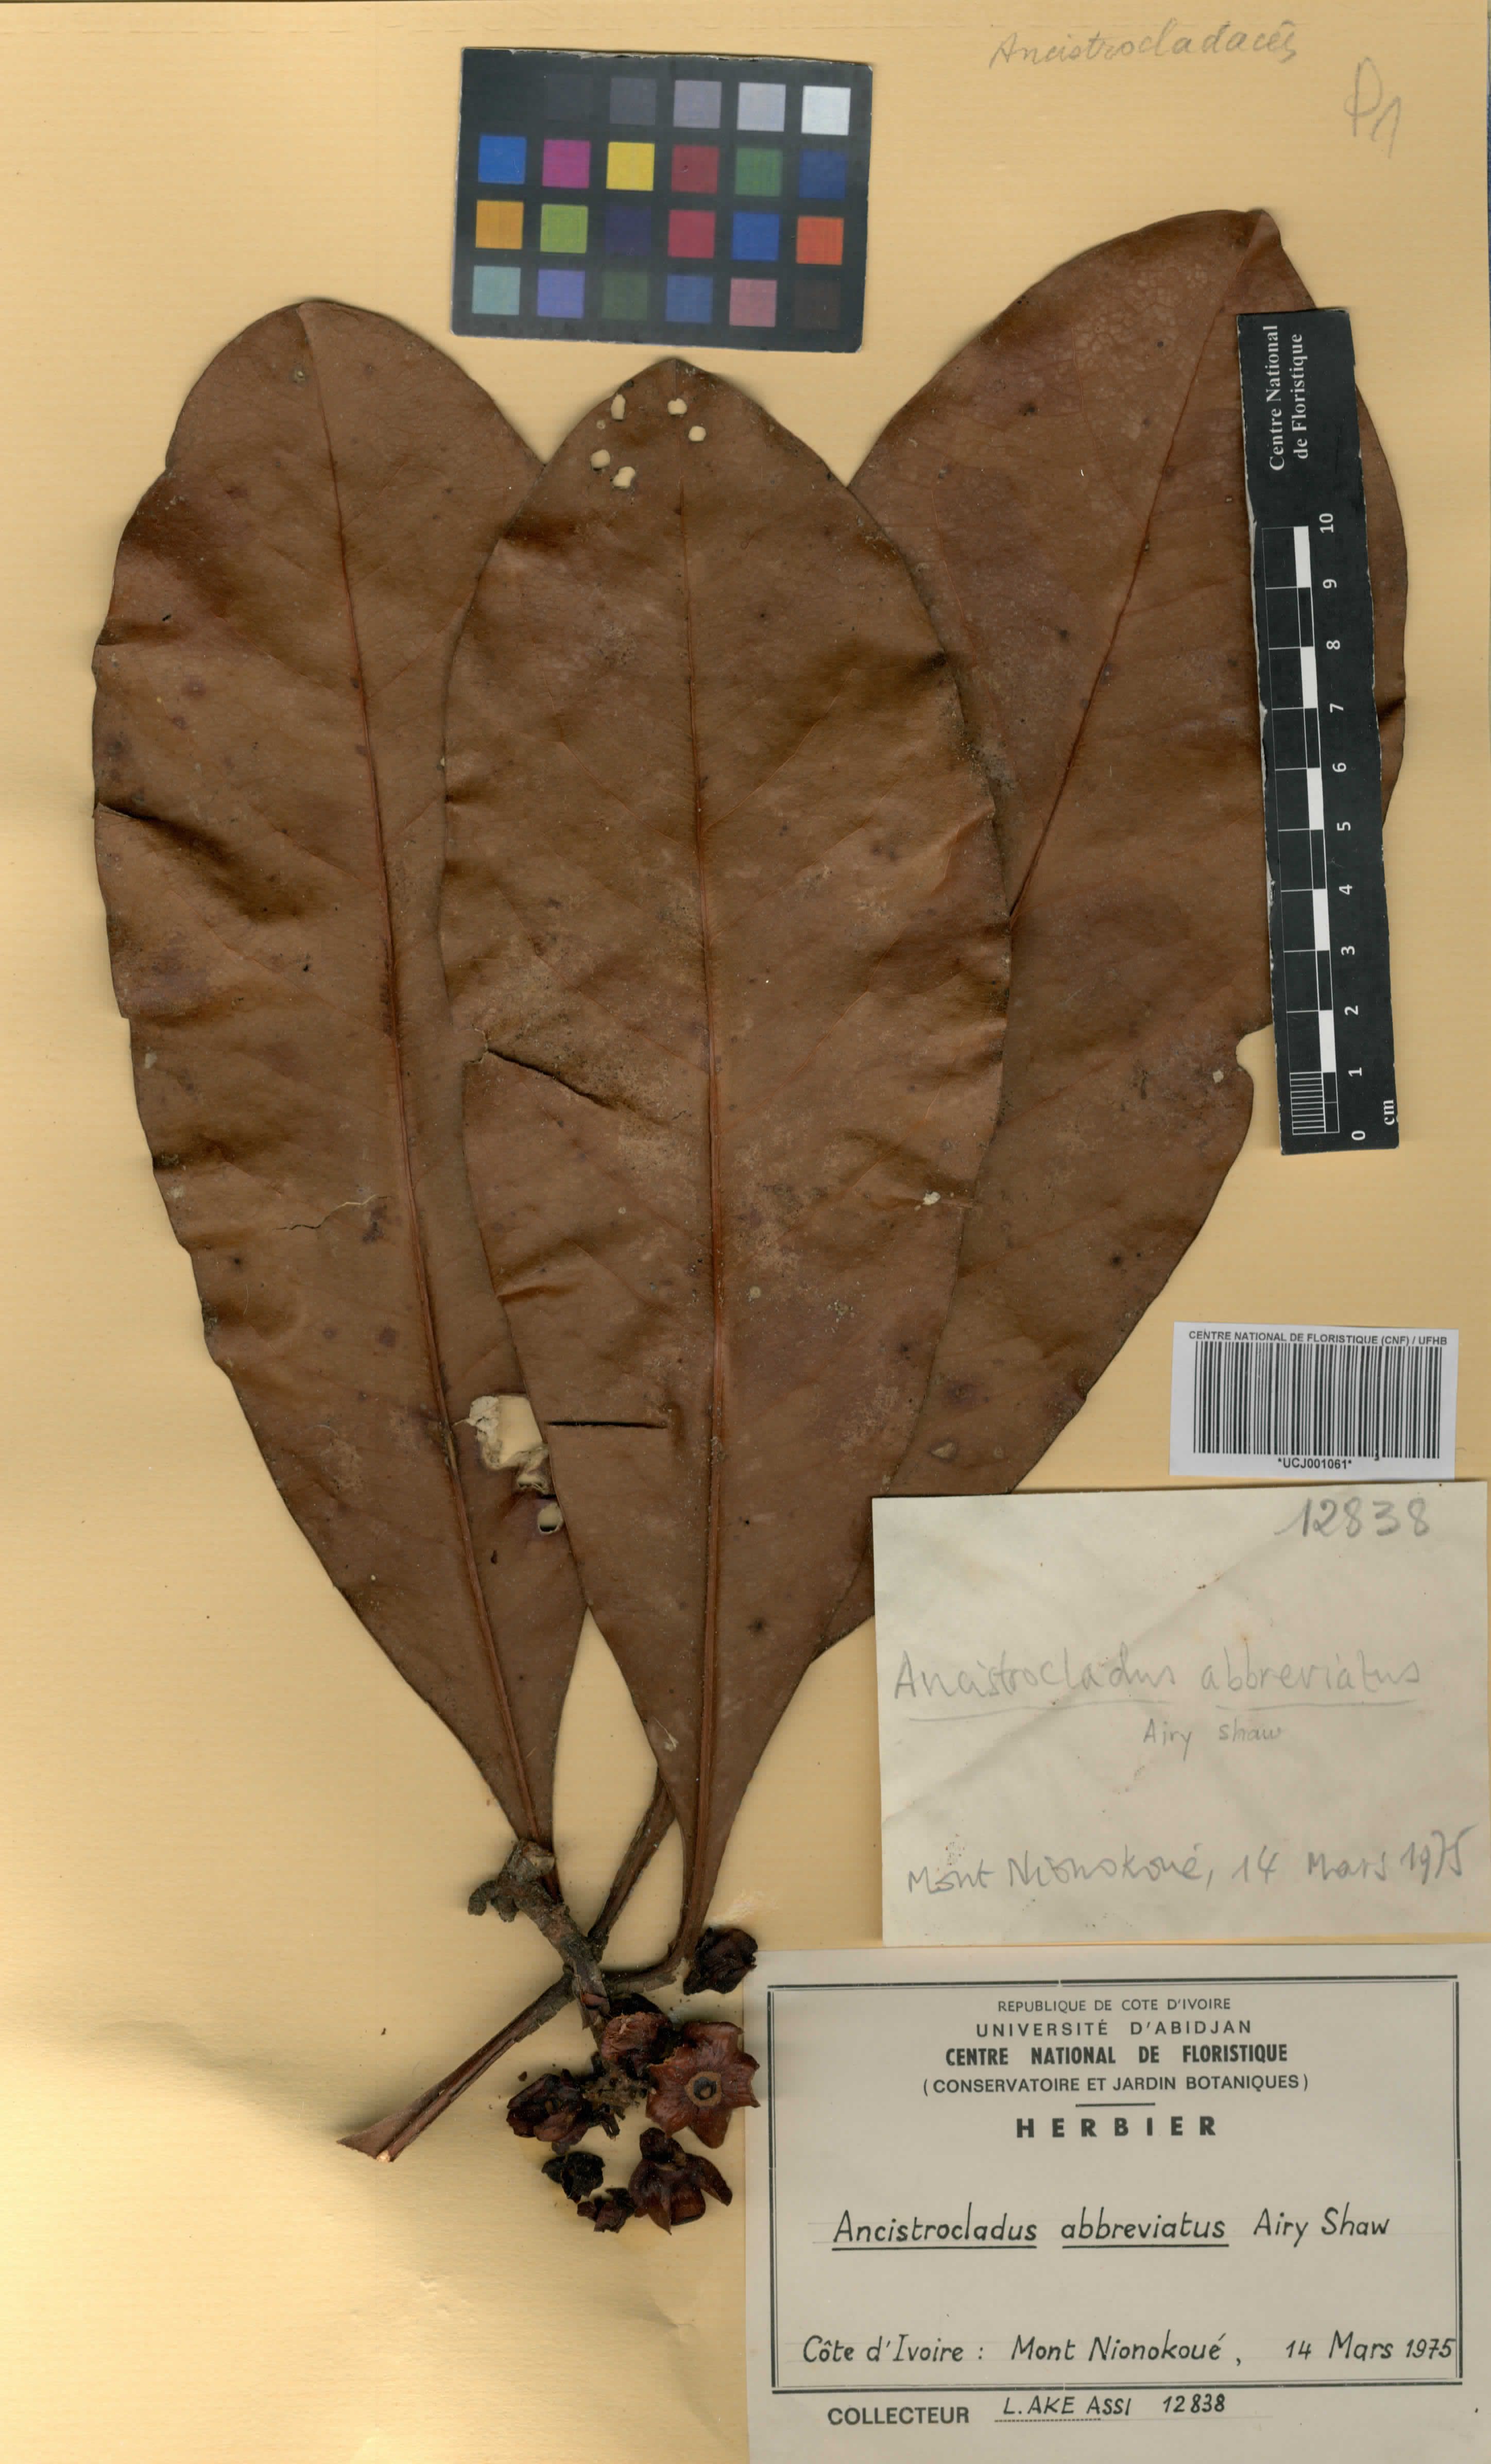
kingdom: Plantae
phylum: Tracheophyta
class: Magnoliopsida
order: Caryophyllales
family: Ancistrocladaceae
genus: Ancistrocladus
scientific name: Ancistrocladus abbreviatus
